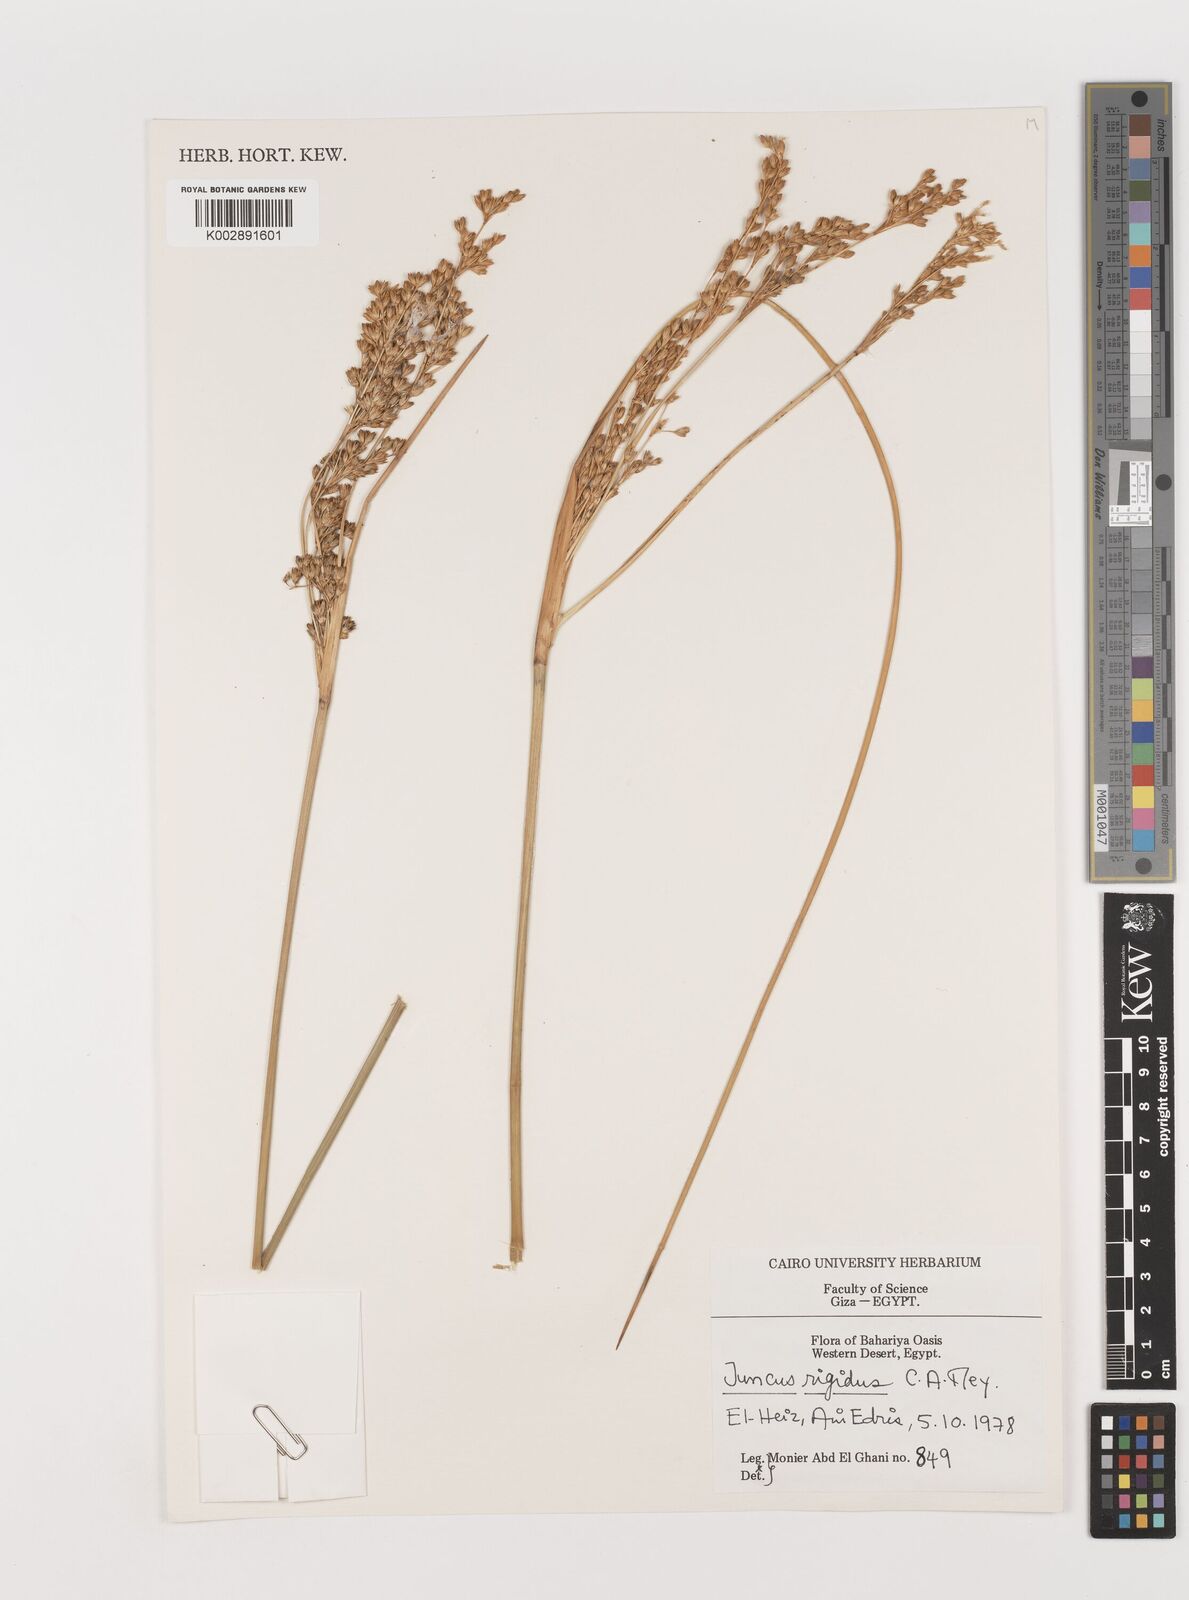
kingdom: Plantae
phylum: Tracheophyta
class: Liliopsida
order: Poales
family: Juncaceae
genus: Juncus
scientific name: Juncus rigidus
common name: Hard sea rush
